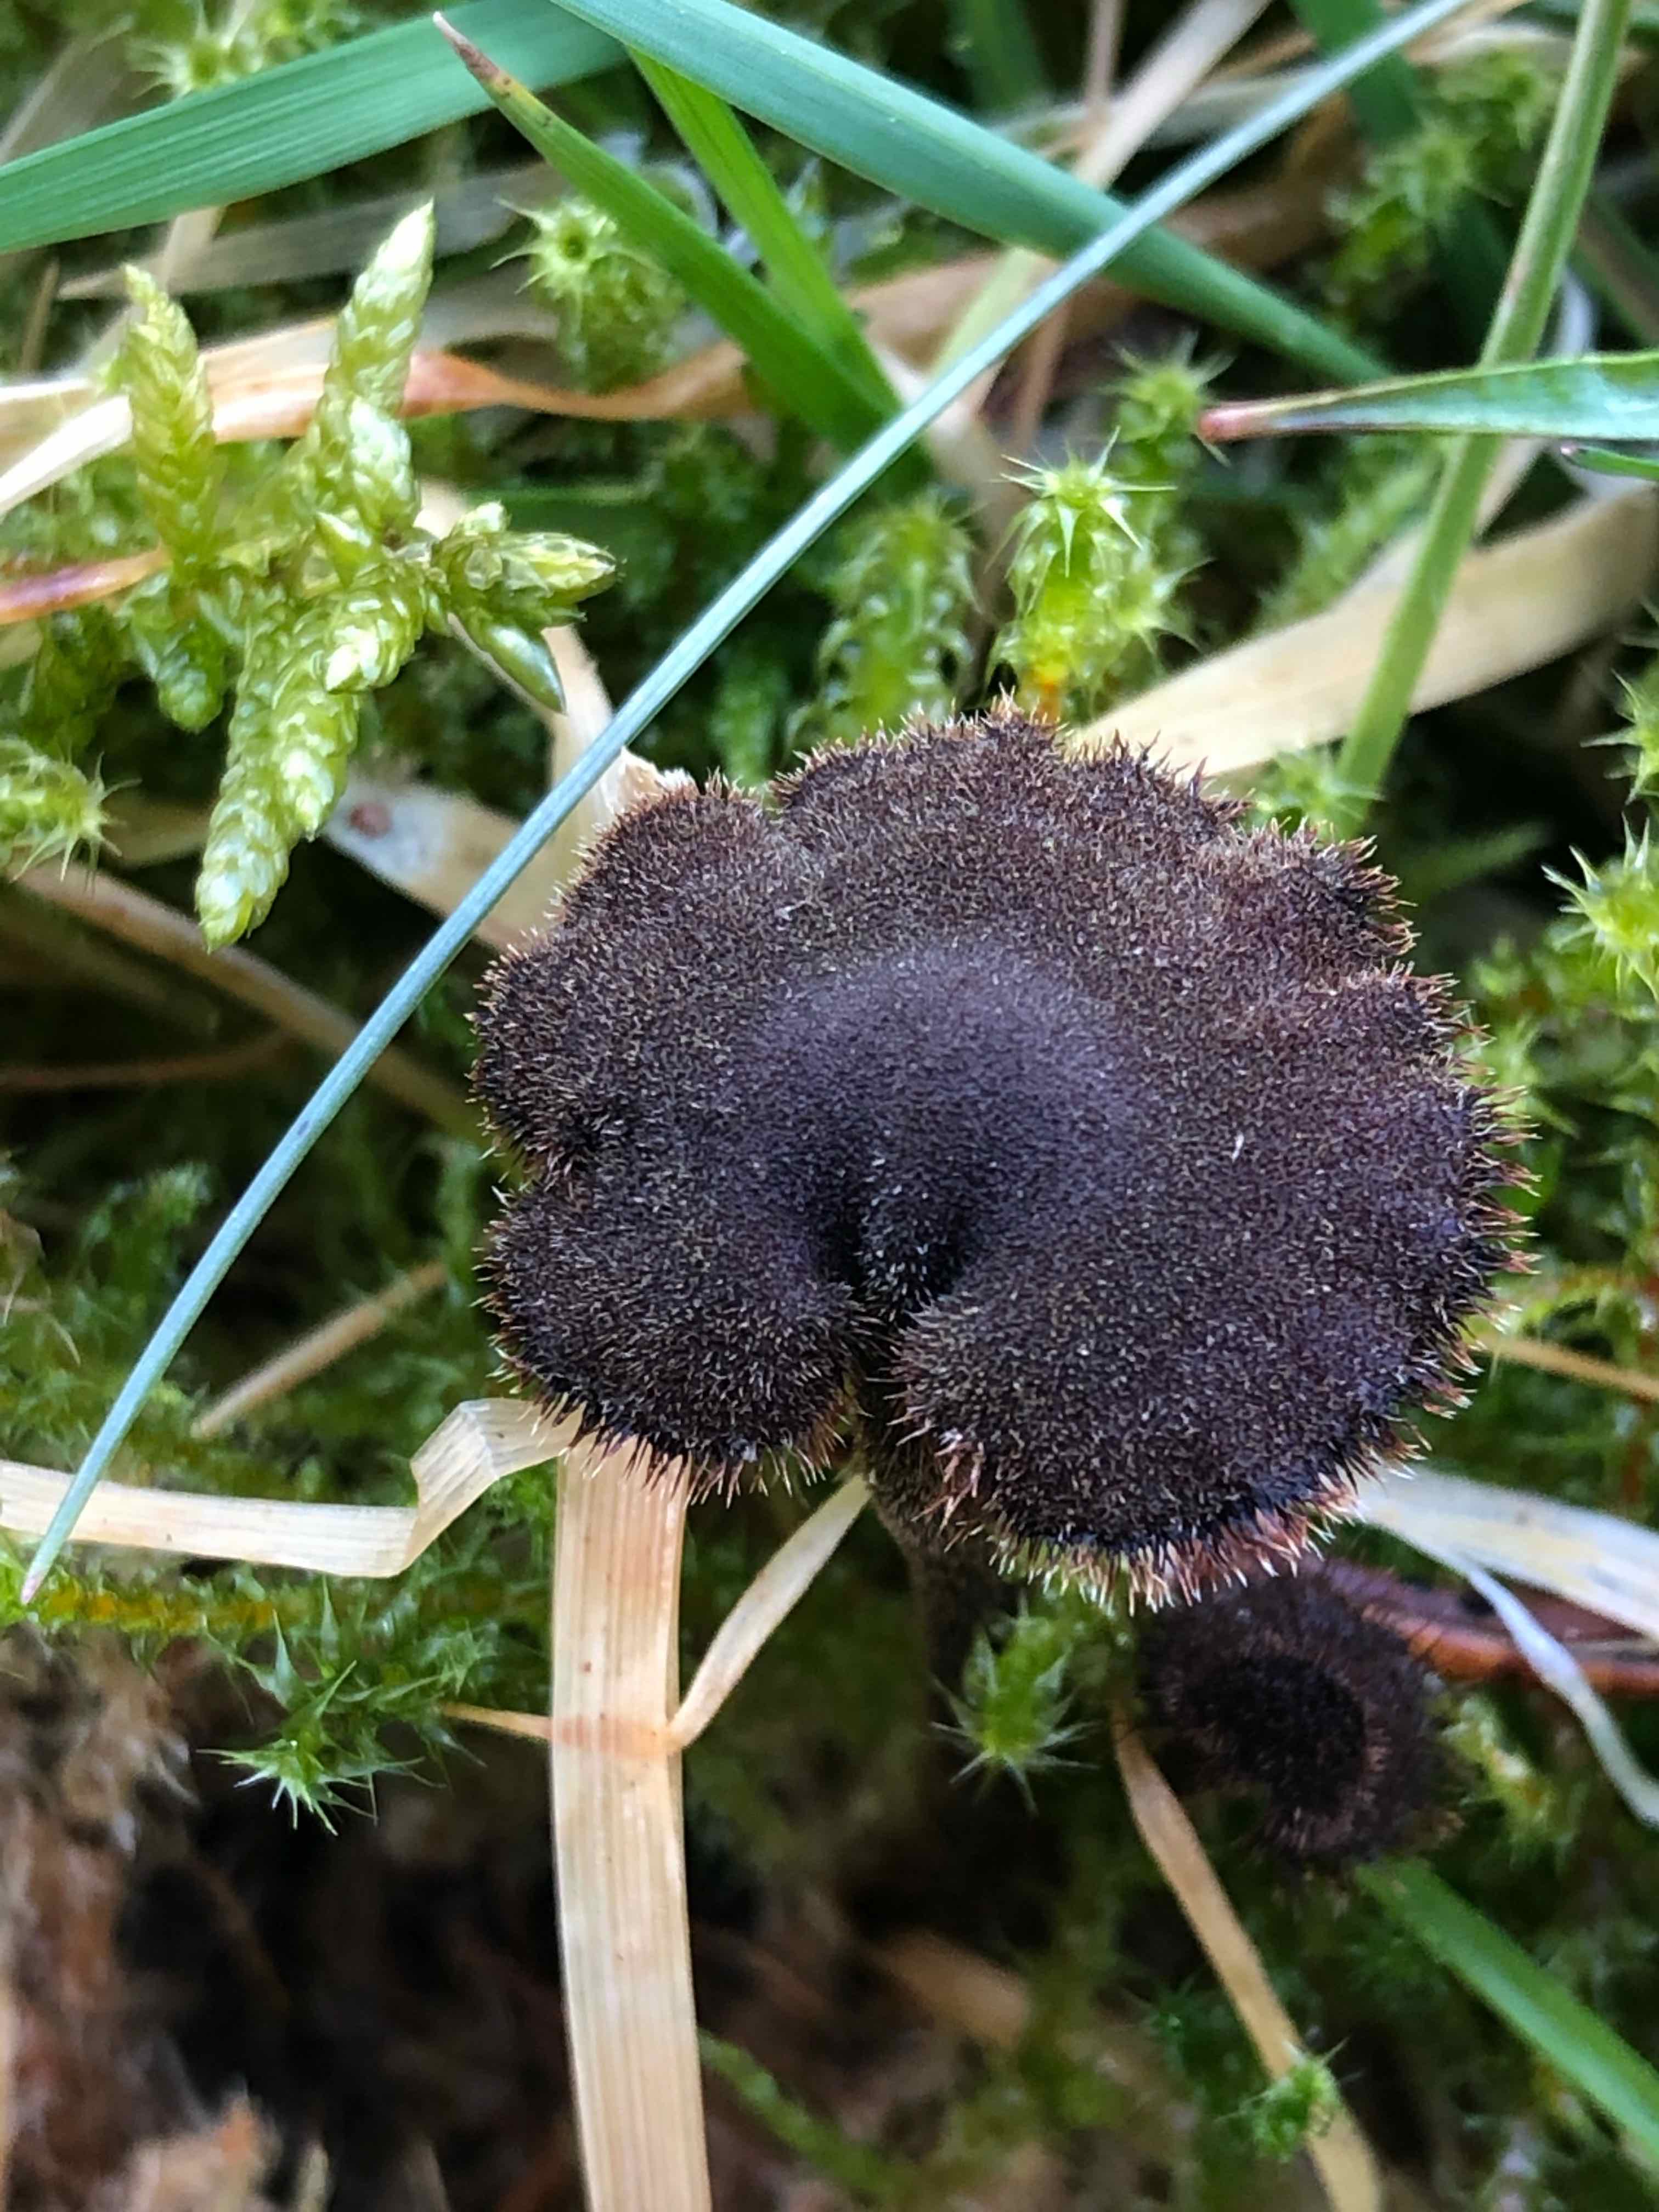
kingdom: Fungi
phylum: Basidiomycota
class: Agaricomycetes
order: Russulales
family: Auriscalpiaceae
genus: Auriscalpium
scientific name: Auriscalpium vulgare
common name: koglepigsvamp
